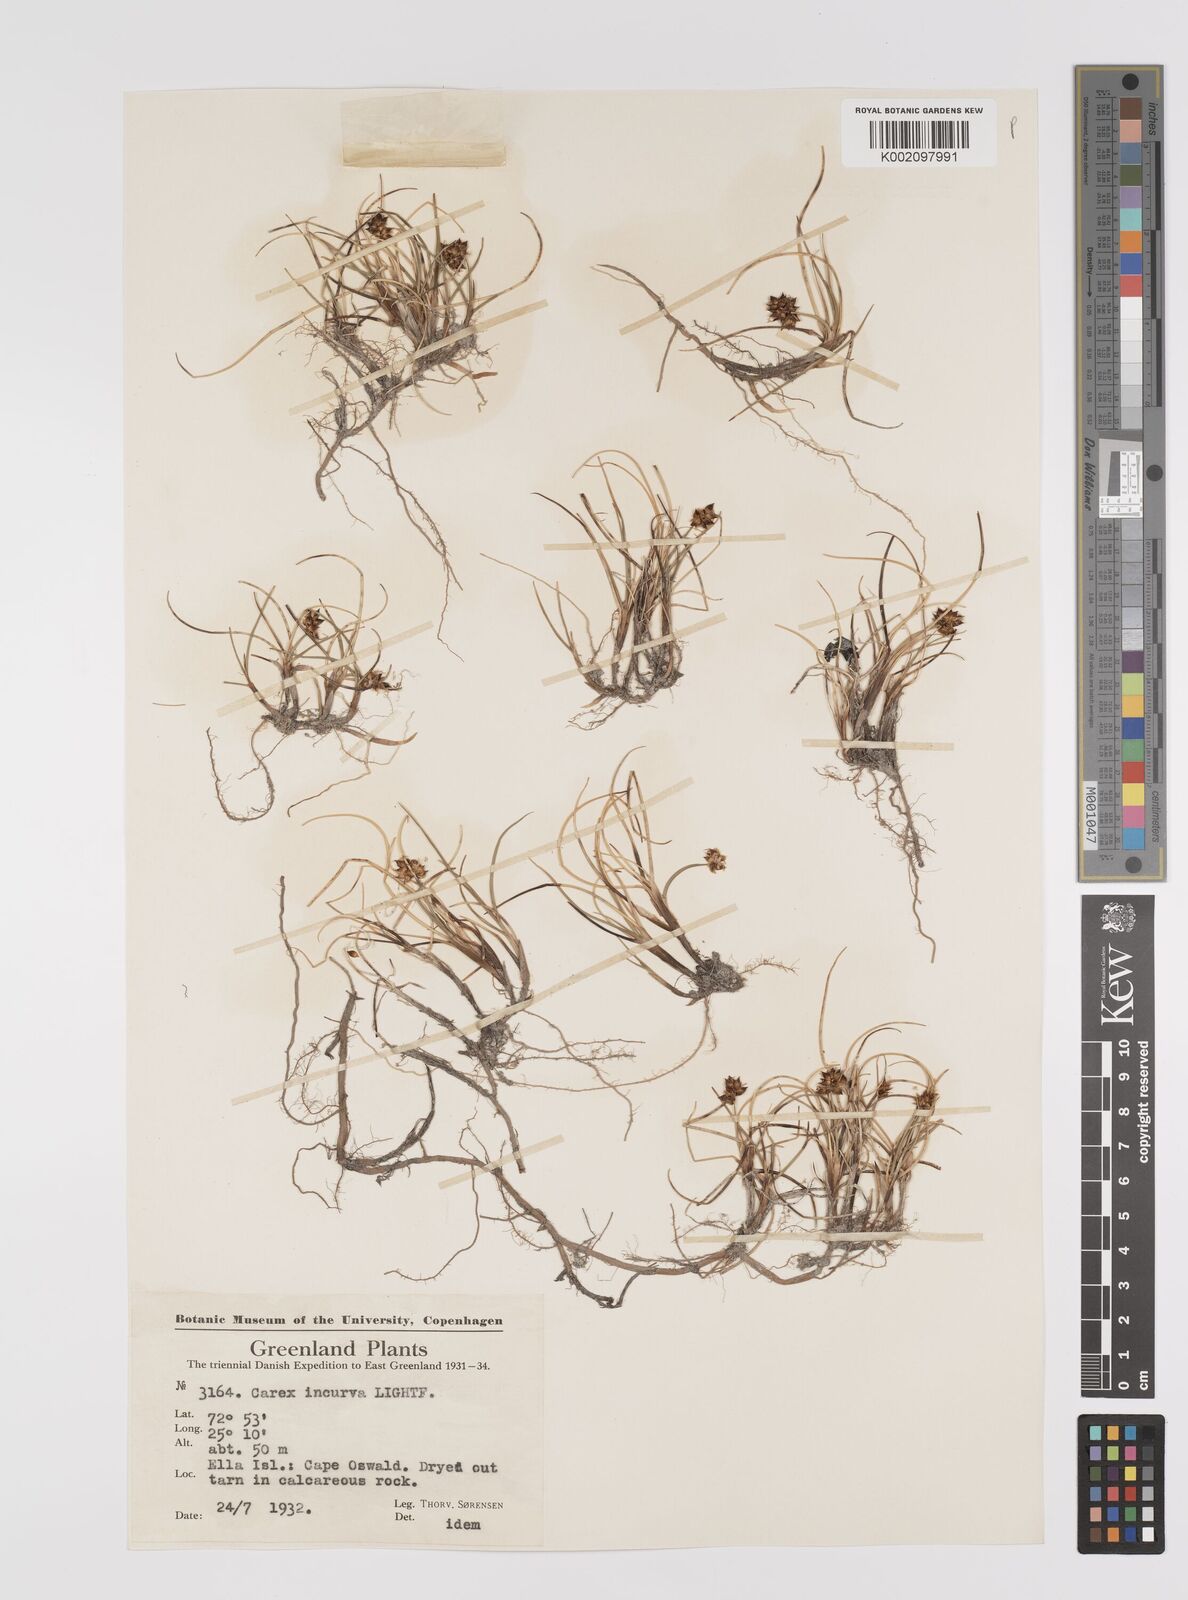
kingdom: Plantae
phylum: Tracheophyta
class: Liliopsida
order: Poales
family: Cyperaceae
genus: Carex
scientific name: Carex maritima
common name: Curved sedge
